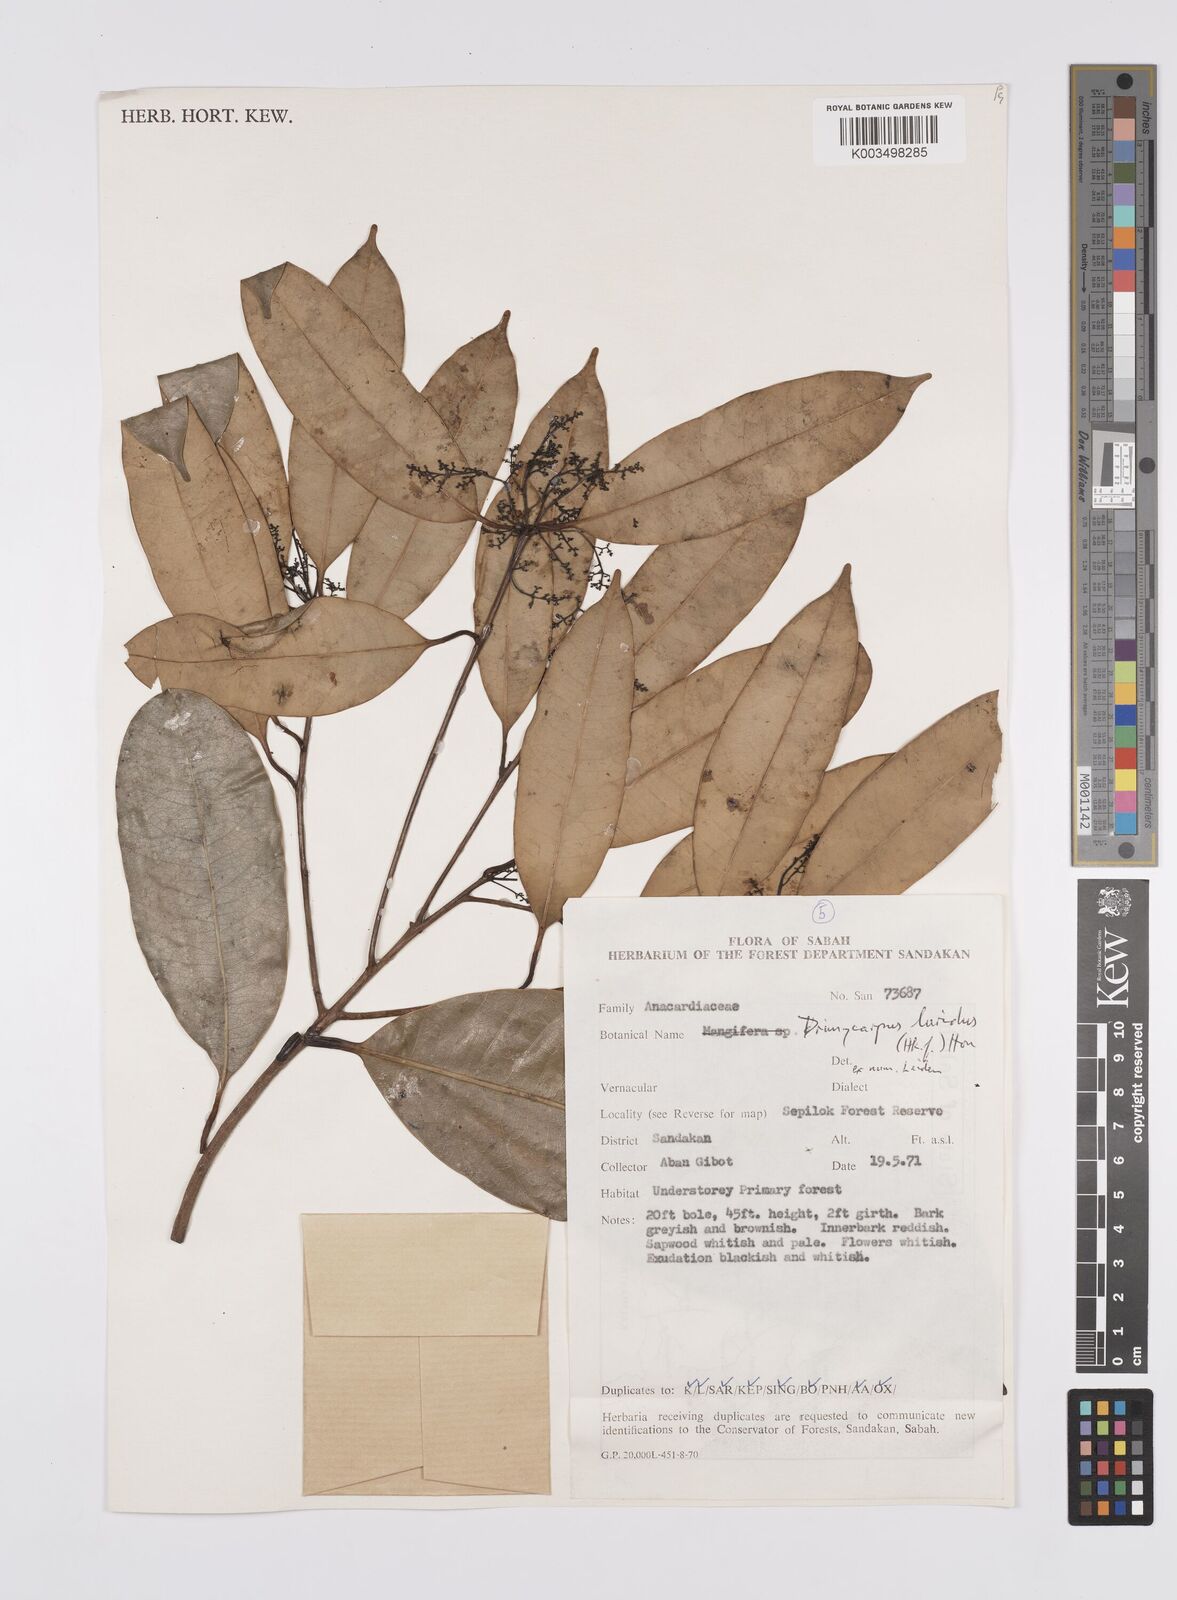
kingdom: Plantae
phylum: Tracheophyta
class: Magnoliopsida
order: Sapindales
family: Anacardiaceae
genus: Drimycarpus
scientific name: Drimycarpus luridus
